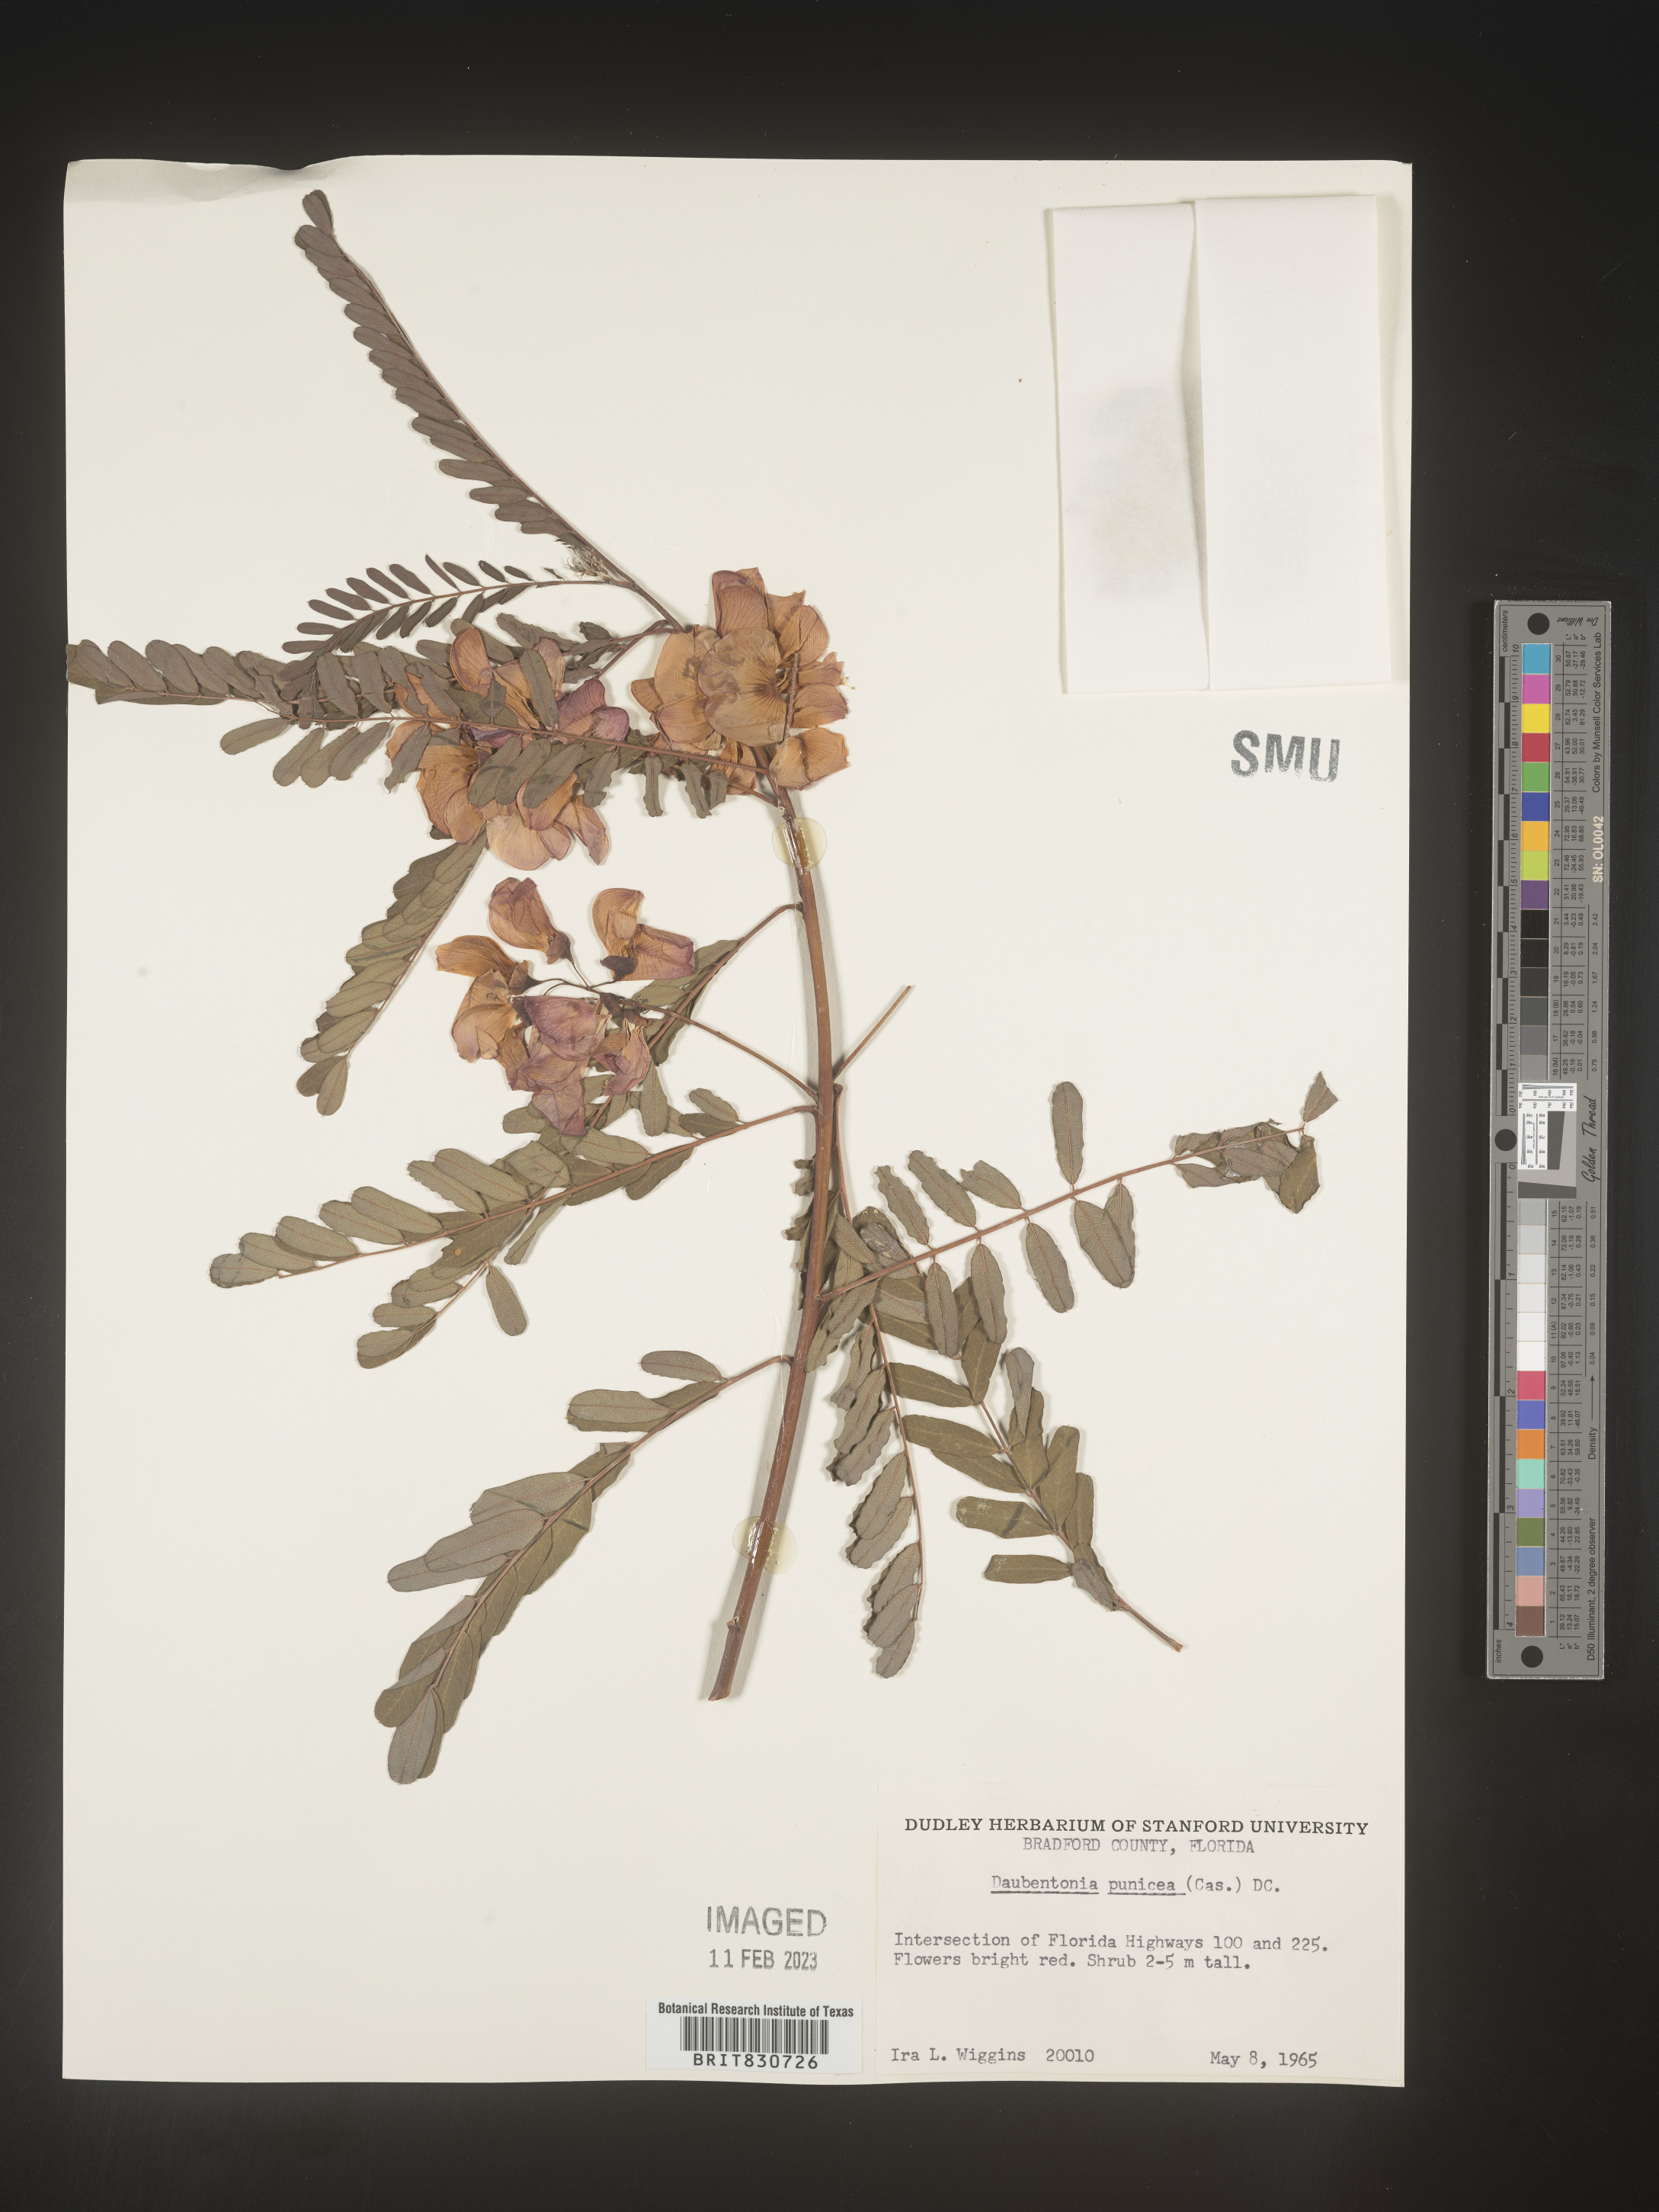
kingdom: Plantae
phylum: Tracheophyta
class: Magnoliopsida
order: Fabales
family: Fabaceae
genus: Sesbania
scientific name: Sesbania punicea
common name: Rattlebox
